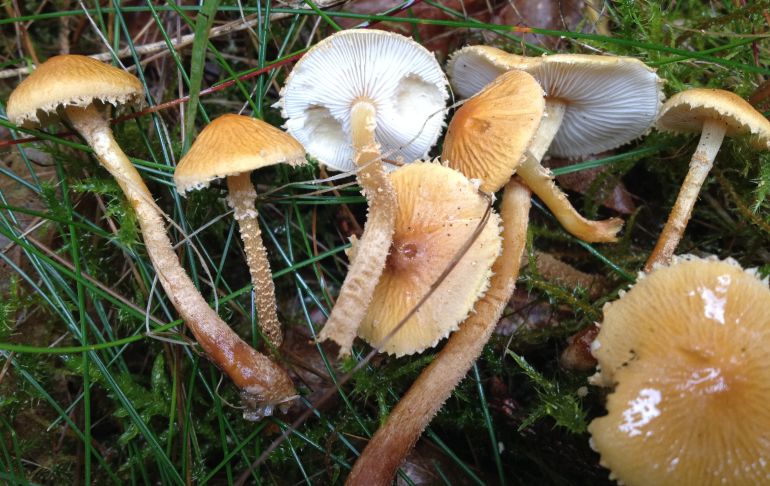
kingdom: Fungi
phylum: Basidiomycota
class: Agaricomycetes
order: Agaricales
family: Tricholomataceae
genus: Cystoderma
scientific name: Cystoderma amianthinum
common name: okkergul grynhat
